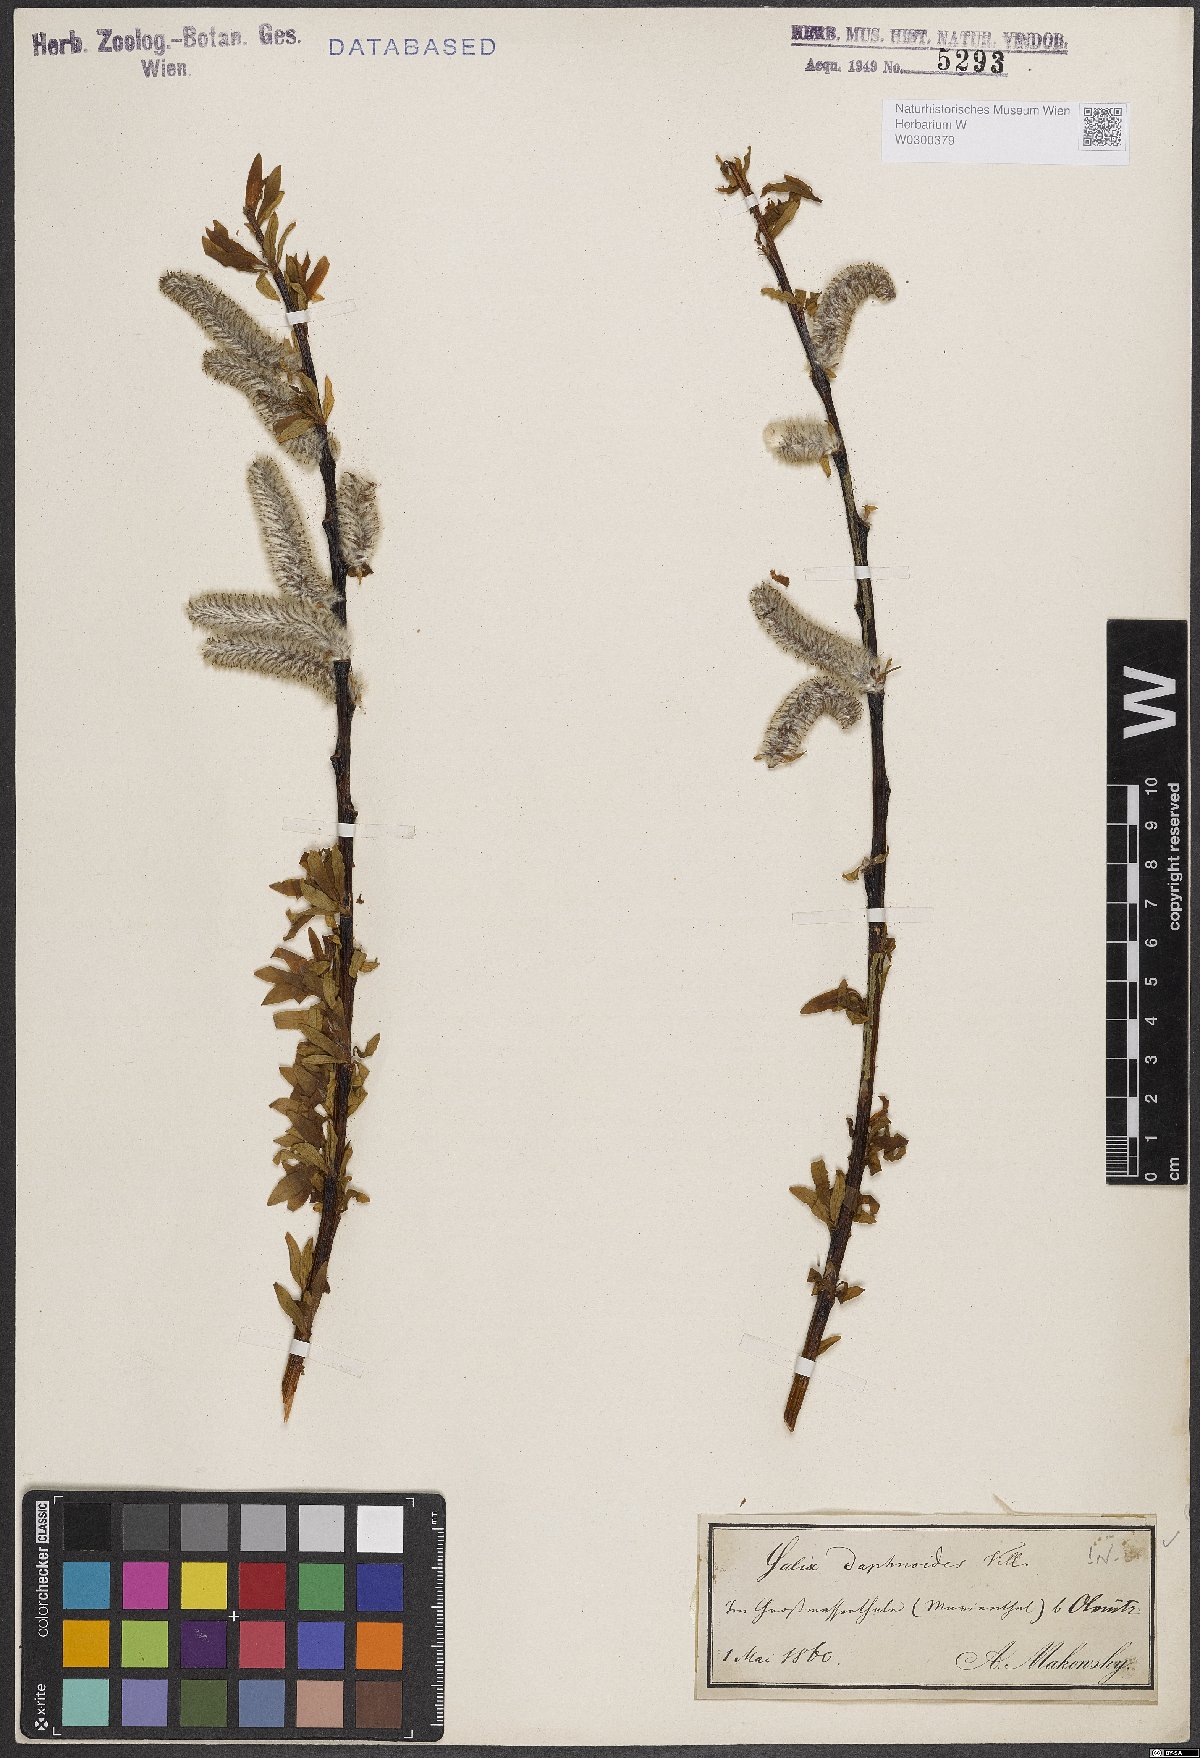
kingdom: Plantae
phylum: Tracheophyta
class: Magnoliopsida
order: Malpighiales
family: Salicaceae
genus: Salix
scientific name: Salix daphnoides
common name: European violet-willow
